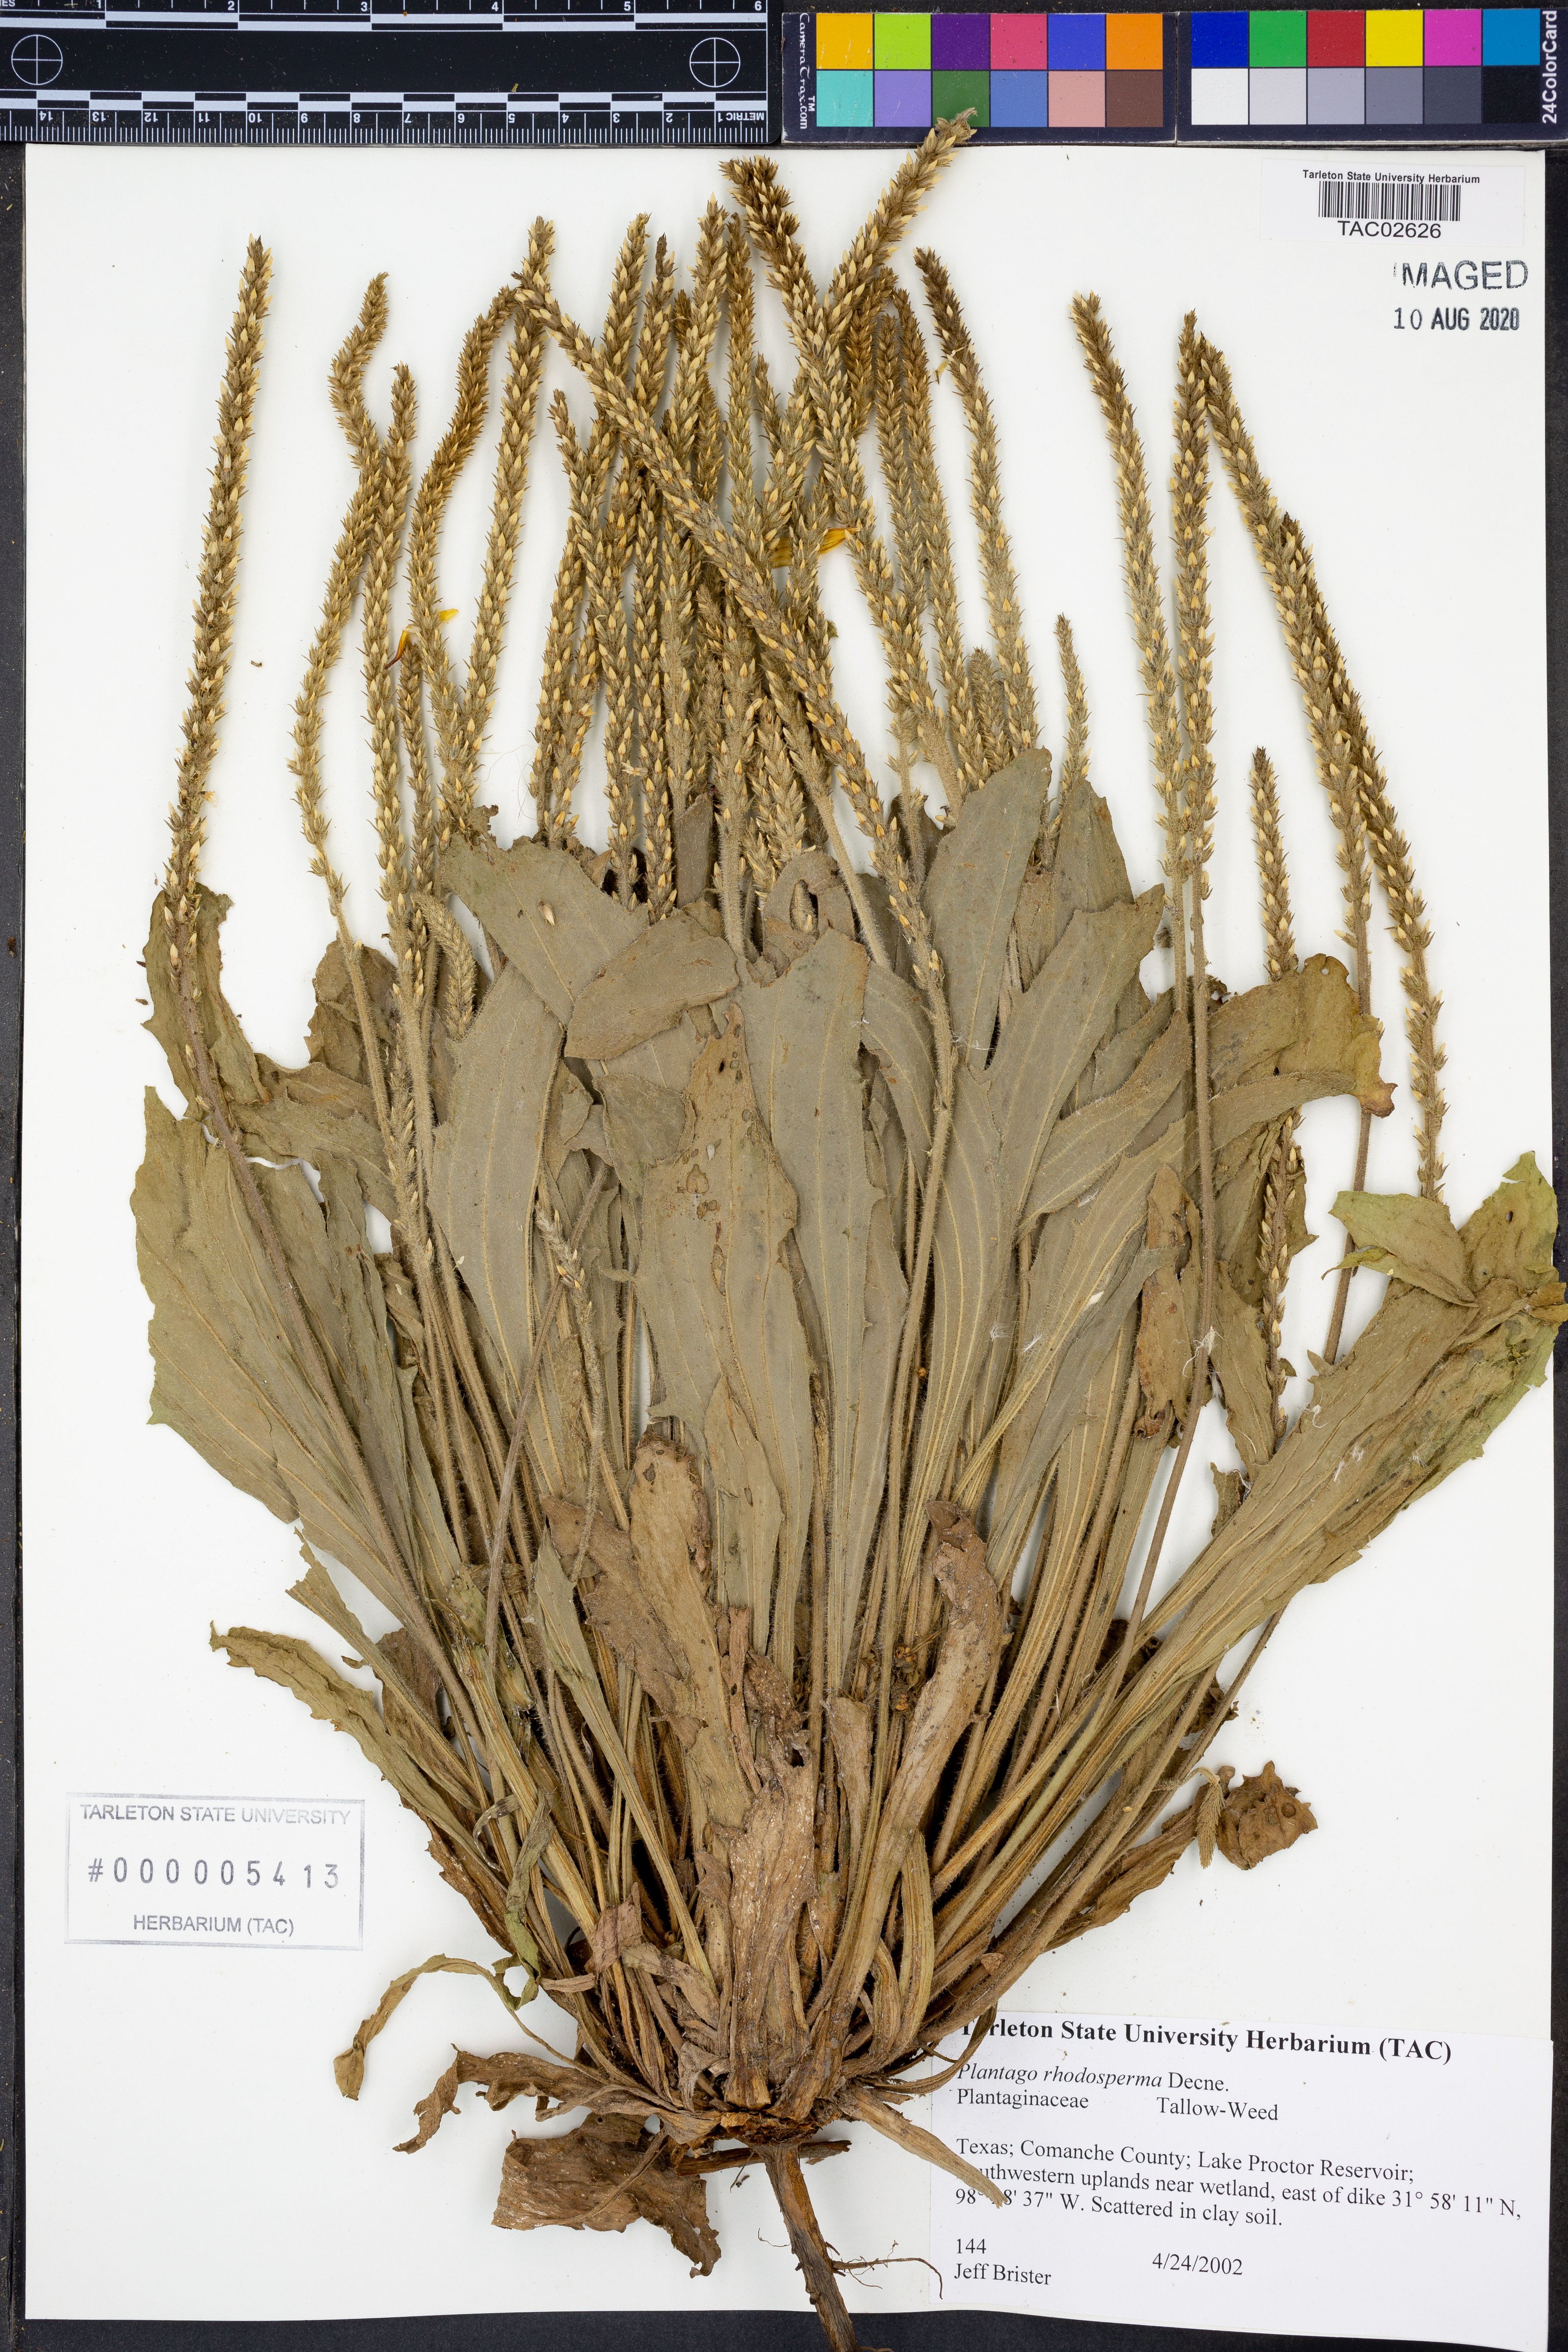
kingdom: Plantae
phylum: Tracheophyta
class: Magnoliopsida
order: Lamiales
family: Plantaginaceae
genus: Plantago
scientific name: Plantago rhodosperma
